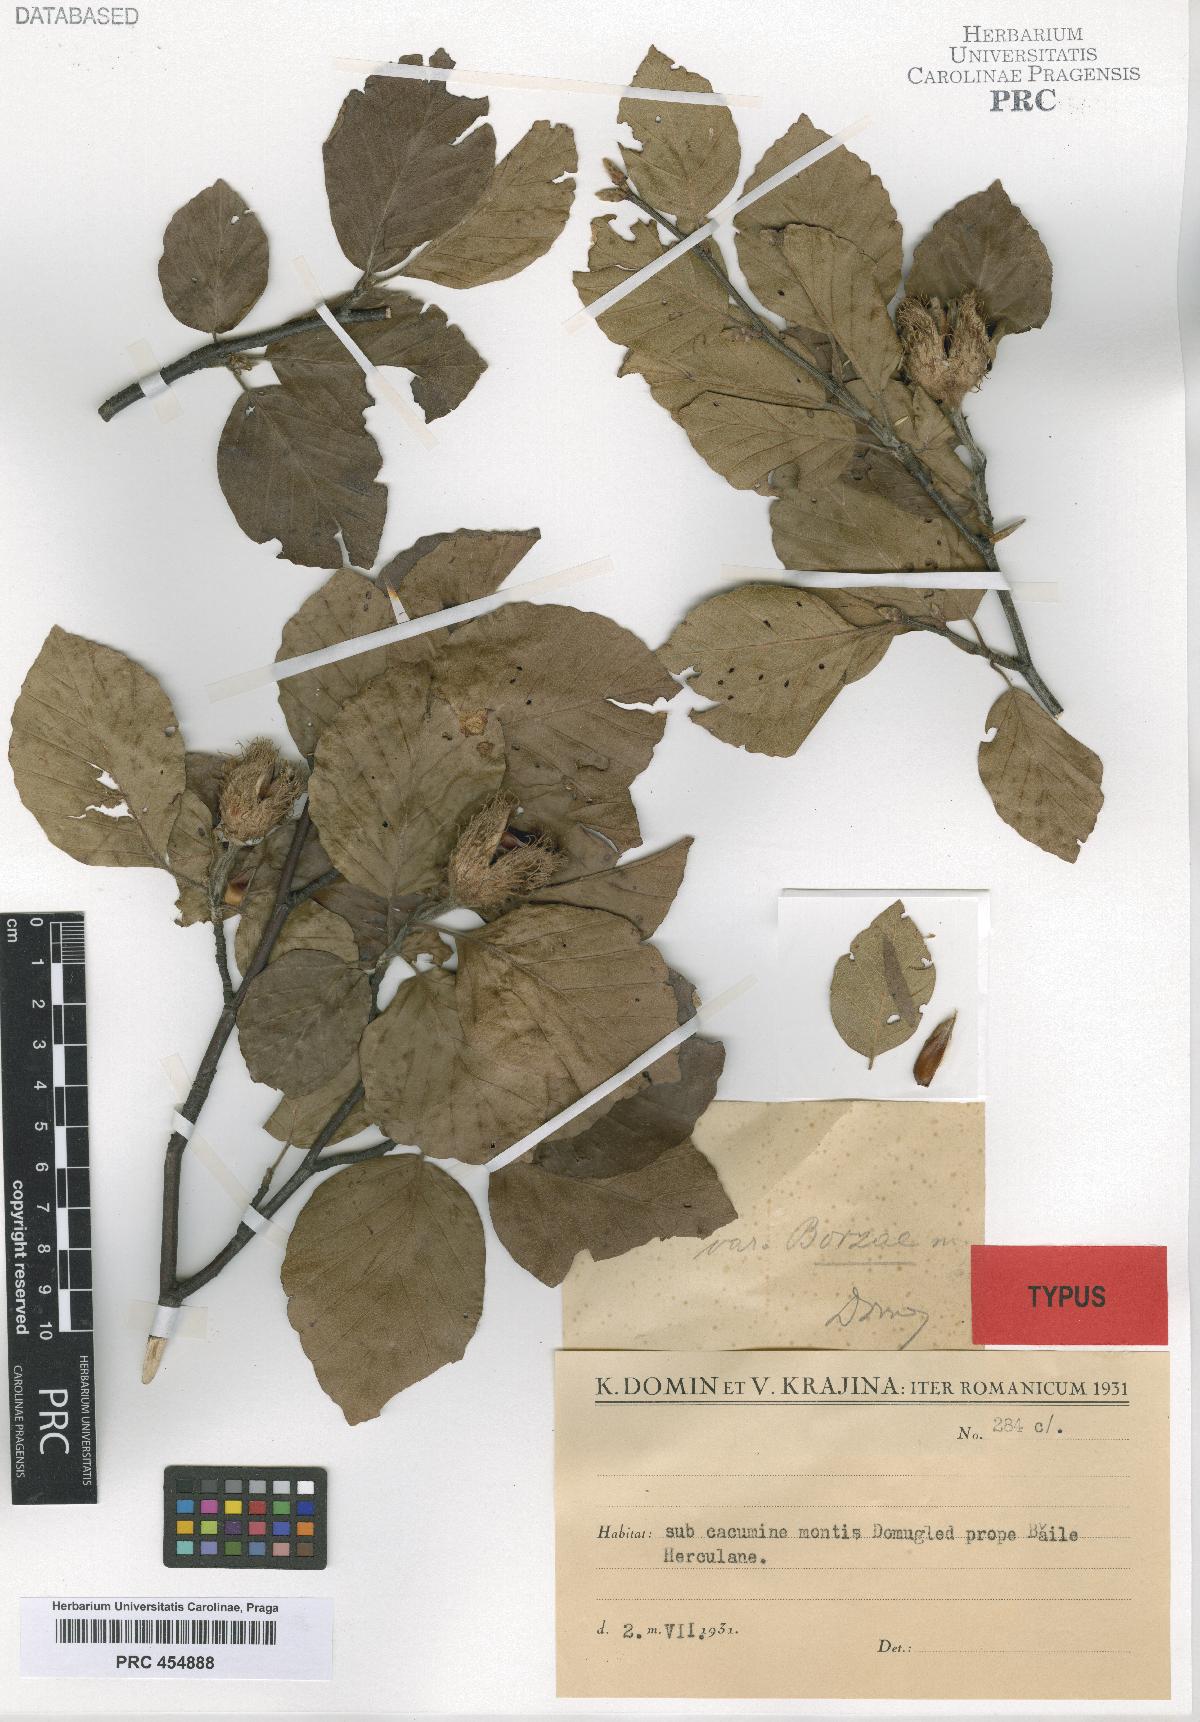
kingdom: Plantae
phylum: Tracheophyta
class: Magnoliopsida
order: Fagales
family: Fagaceae
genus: Fagus
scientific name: Fagus taurica
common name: Crimean beech
